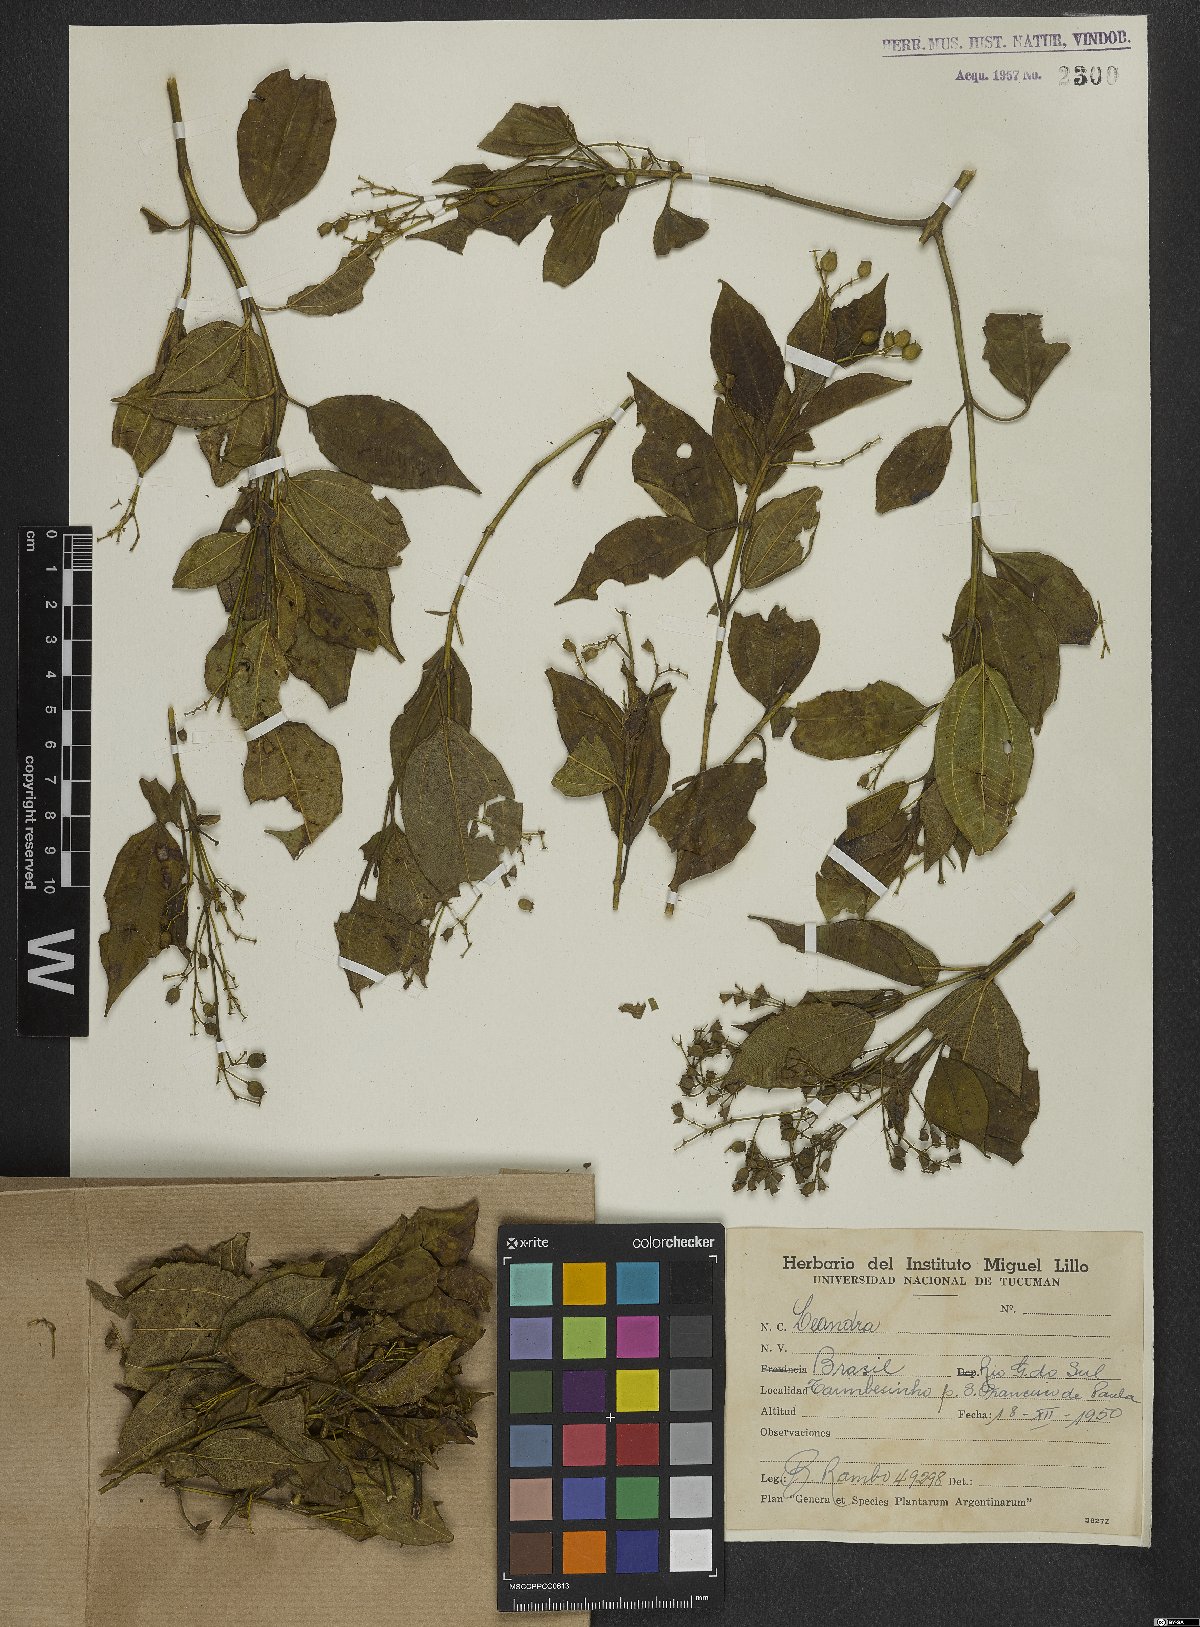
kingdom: Plantae
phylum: Tracheophyta
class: Magnoliopsida
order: Myrtales
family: Melastomataceae
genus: Miconia
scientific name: Miconia
